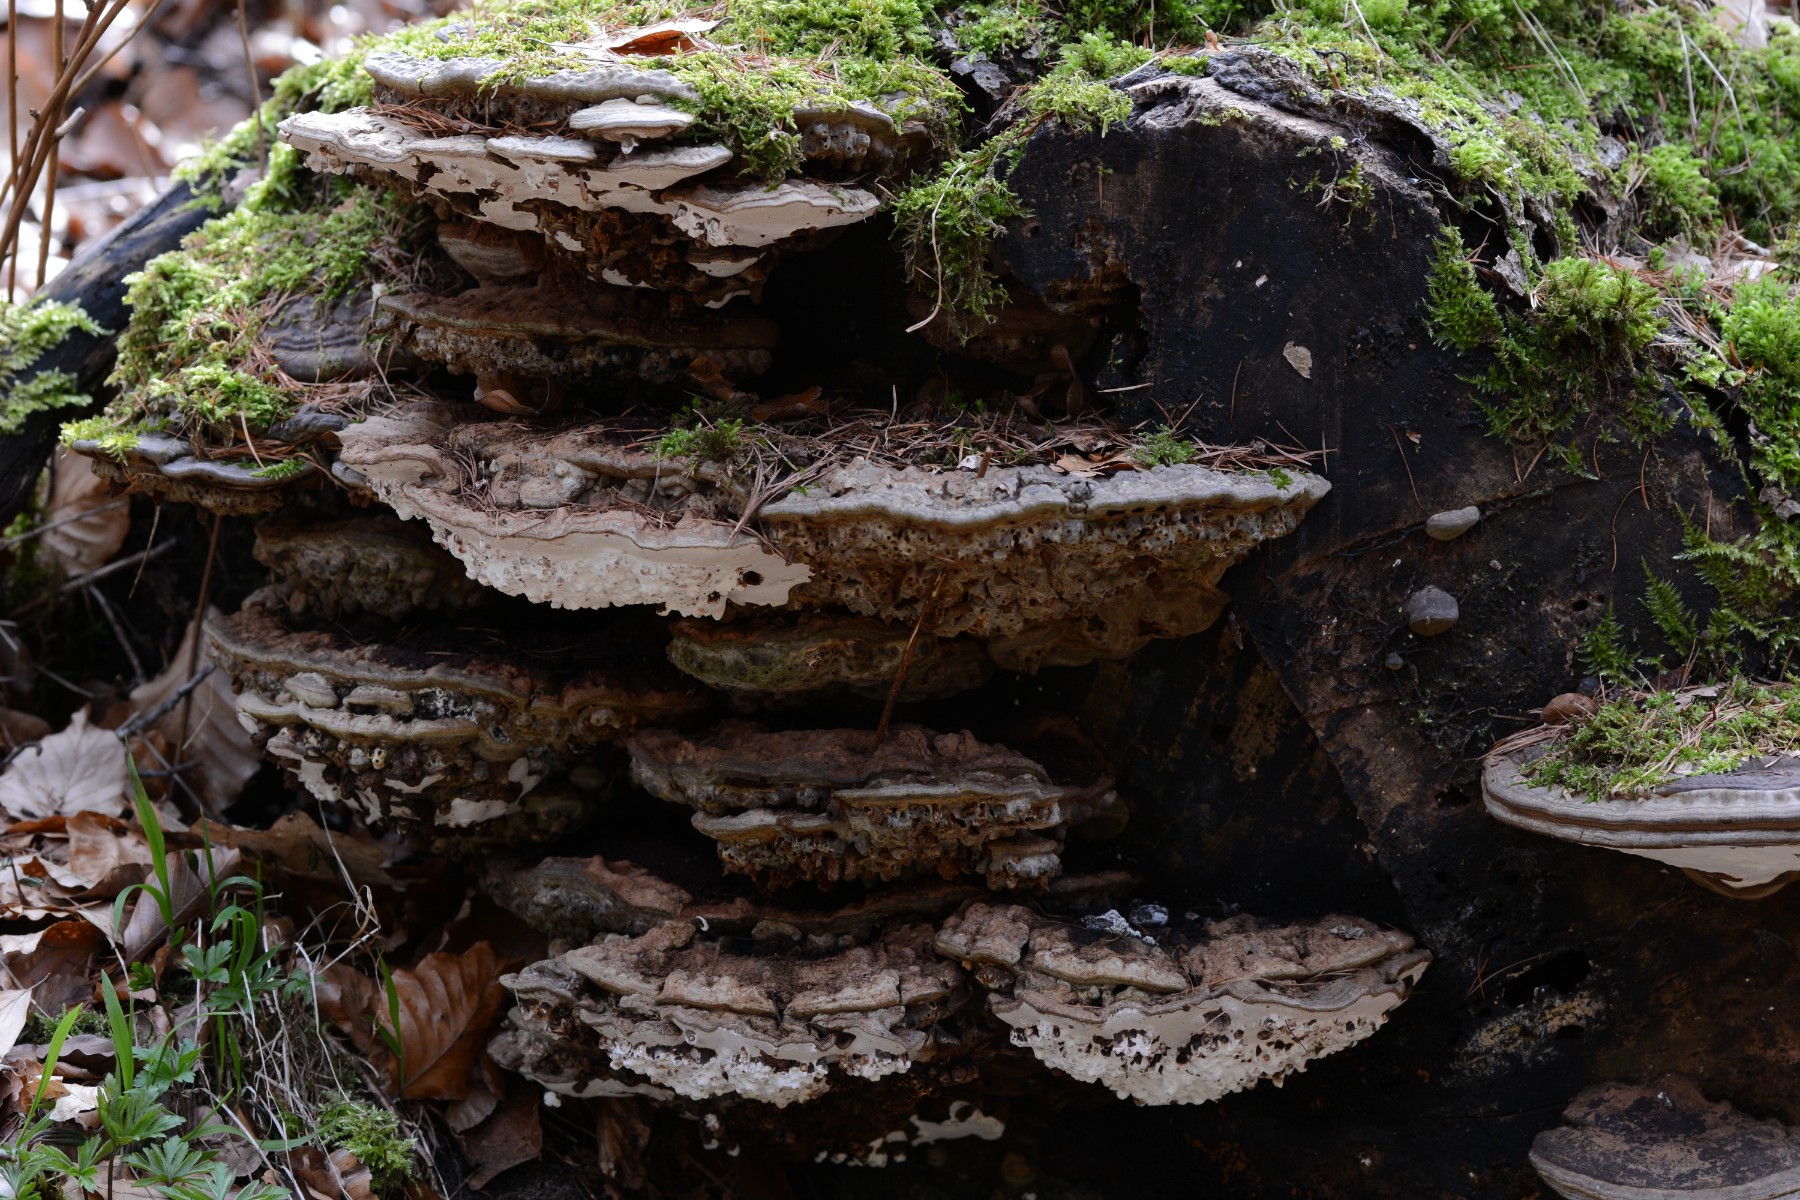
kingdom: Fungi
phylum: Basidiomycota
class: Agaricomycetes
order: Polyporales
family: Polyporaceae
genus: Ganoderma
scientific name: Ganoderma applanatum
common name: flad lakporesvamp
